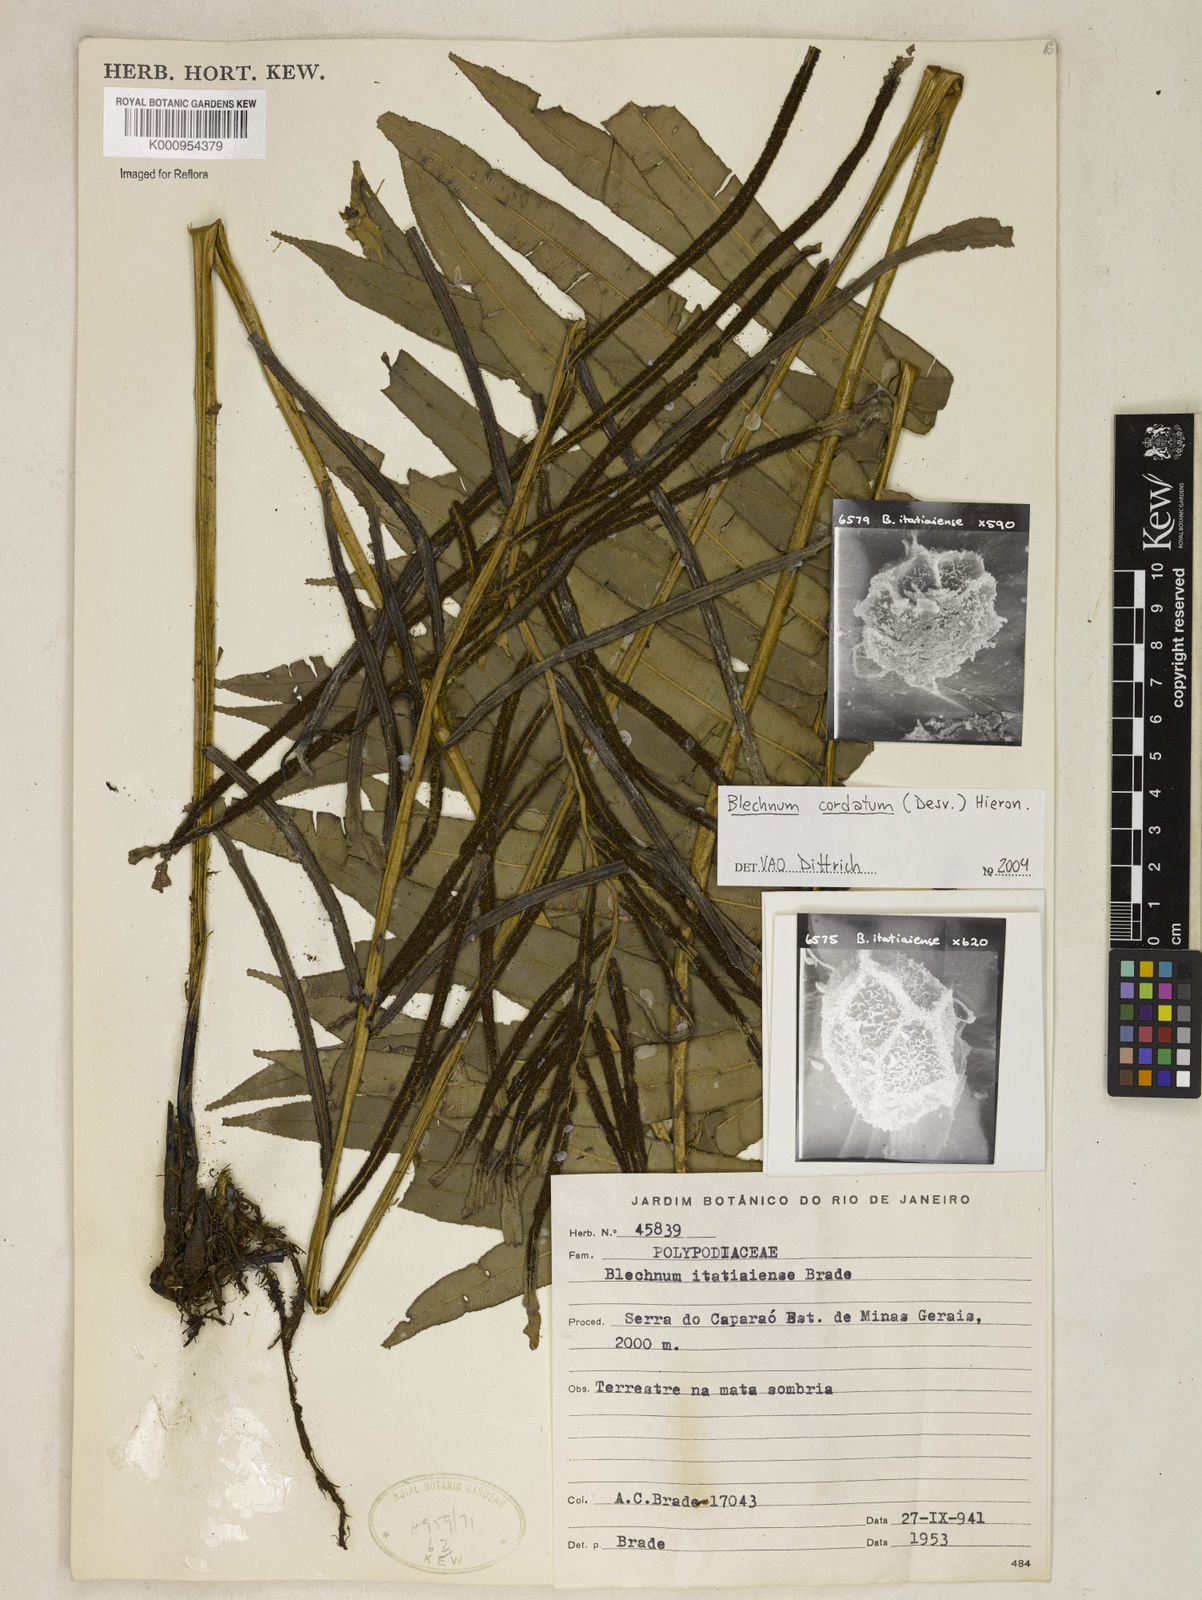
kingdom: Plantae
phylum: Tracheophyta
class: Polypodiopsida
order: Polypodiales
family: Blechnaceae
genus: Parablechnum
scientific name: Parablechnum cordatum
